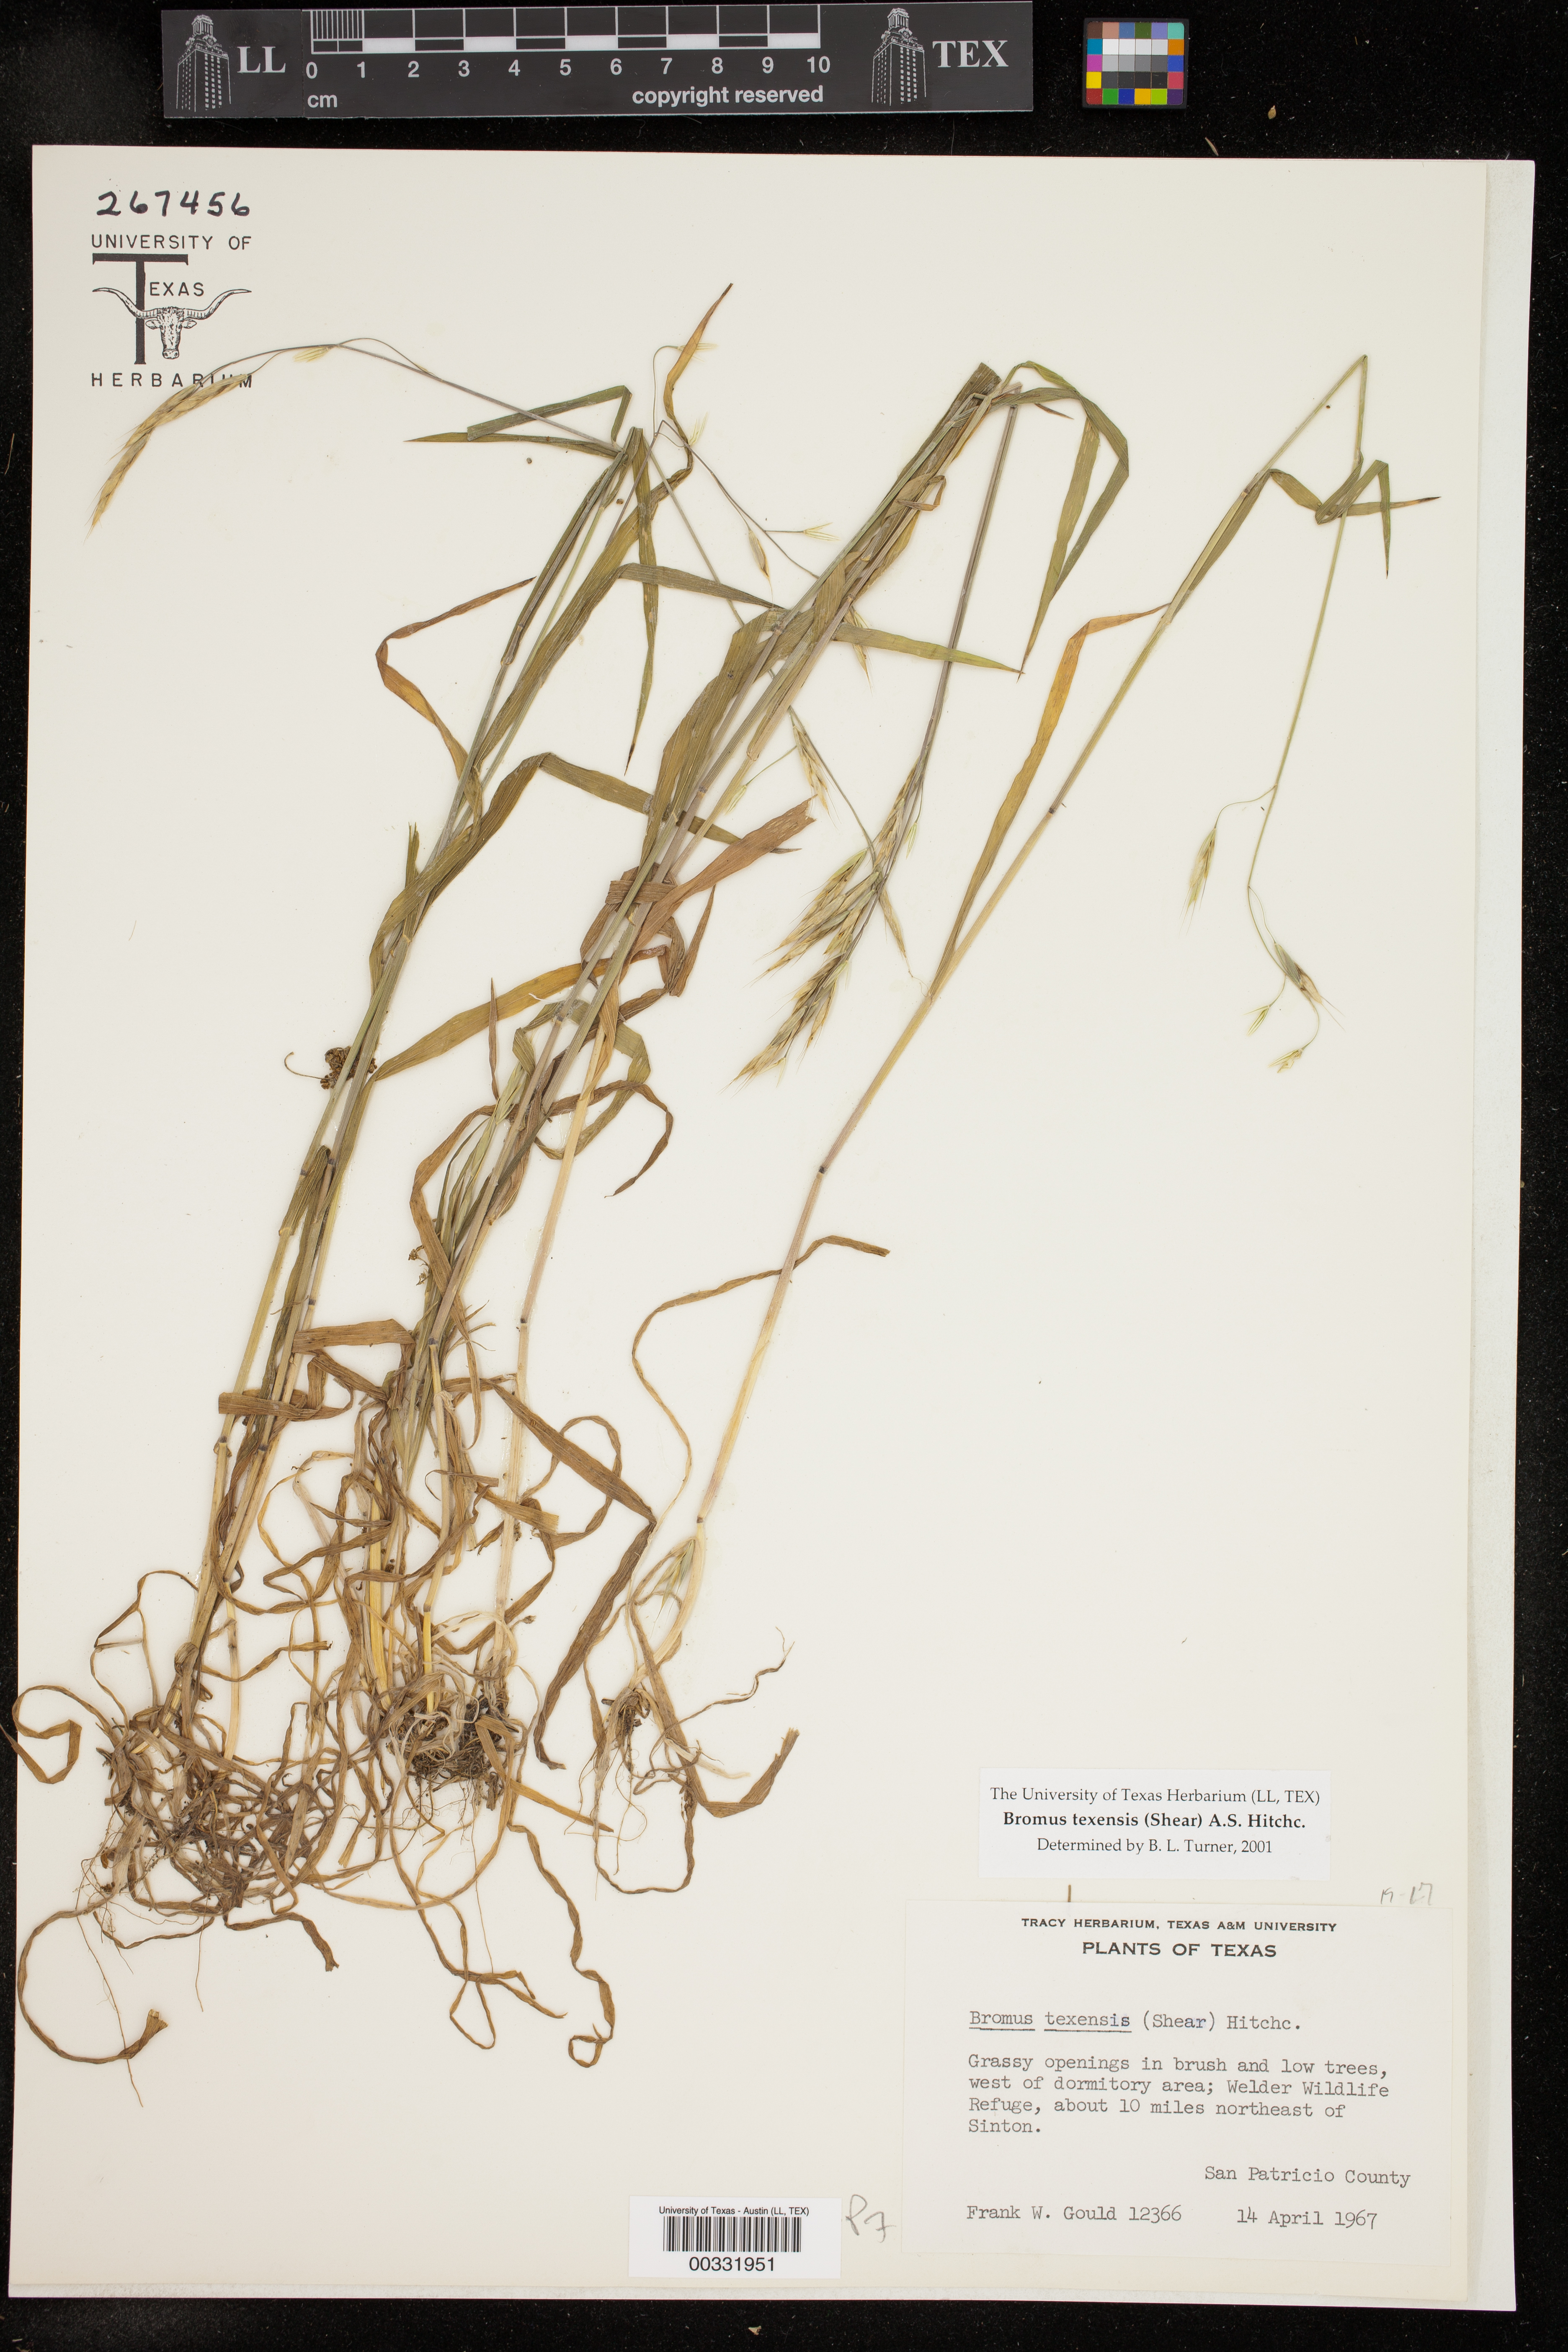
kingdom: Plantae
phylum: Tracheophyta
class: Liliopsida
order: Poales
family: Poaceae
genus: Bromus
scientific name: Bromus texensis
